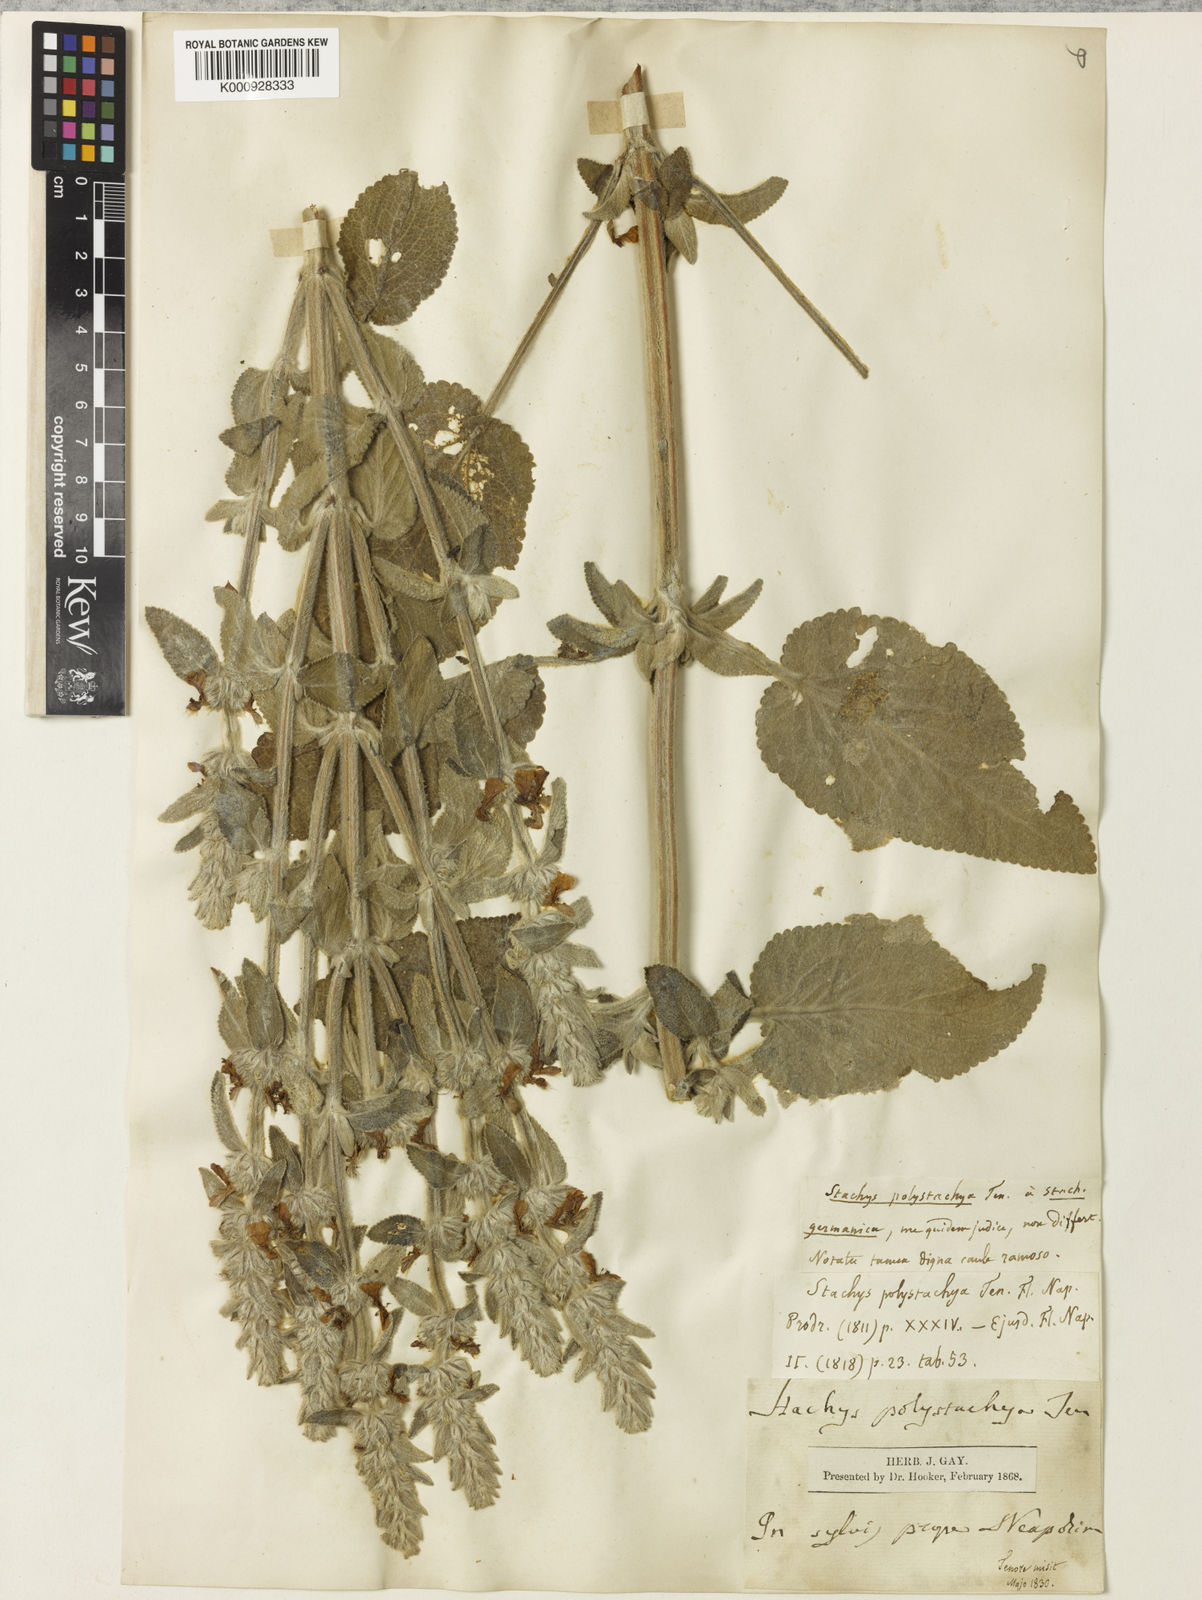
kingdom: Plantae
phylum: Tracheophyta
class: Magnoliopsida
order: Lamiales
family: Lamiaceae
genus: Stachys
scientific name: Stachys germanica
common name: Downy woundwort
